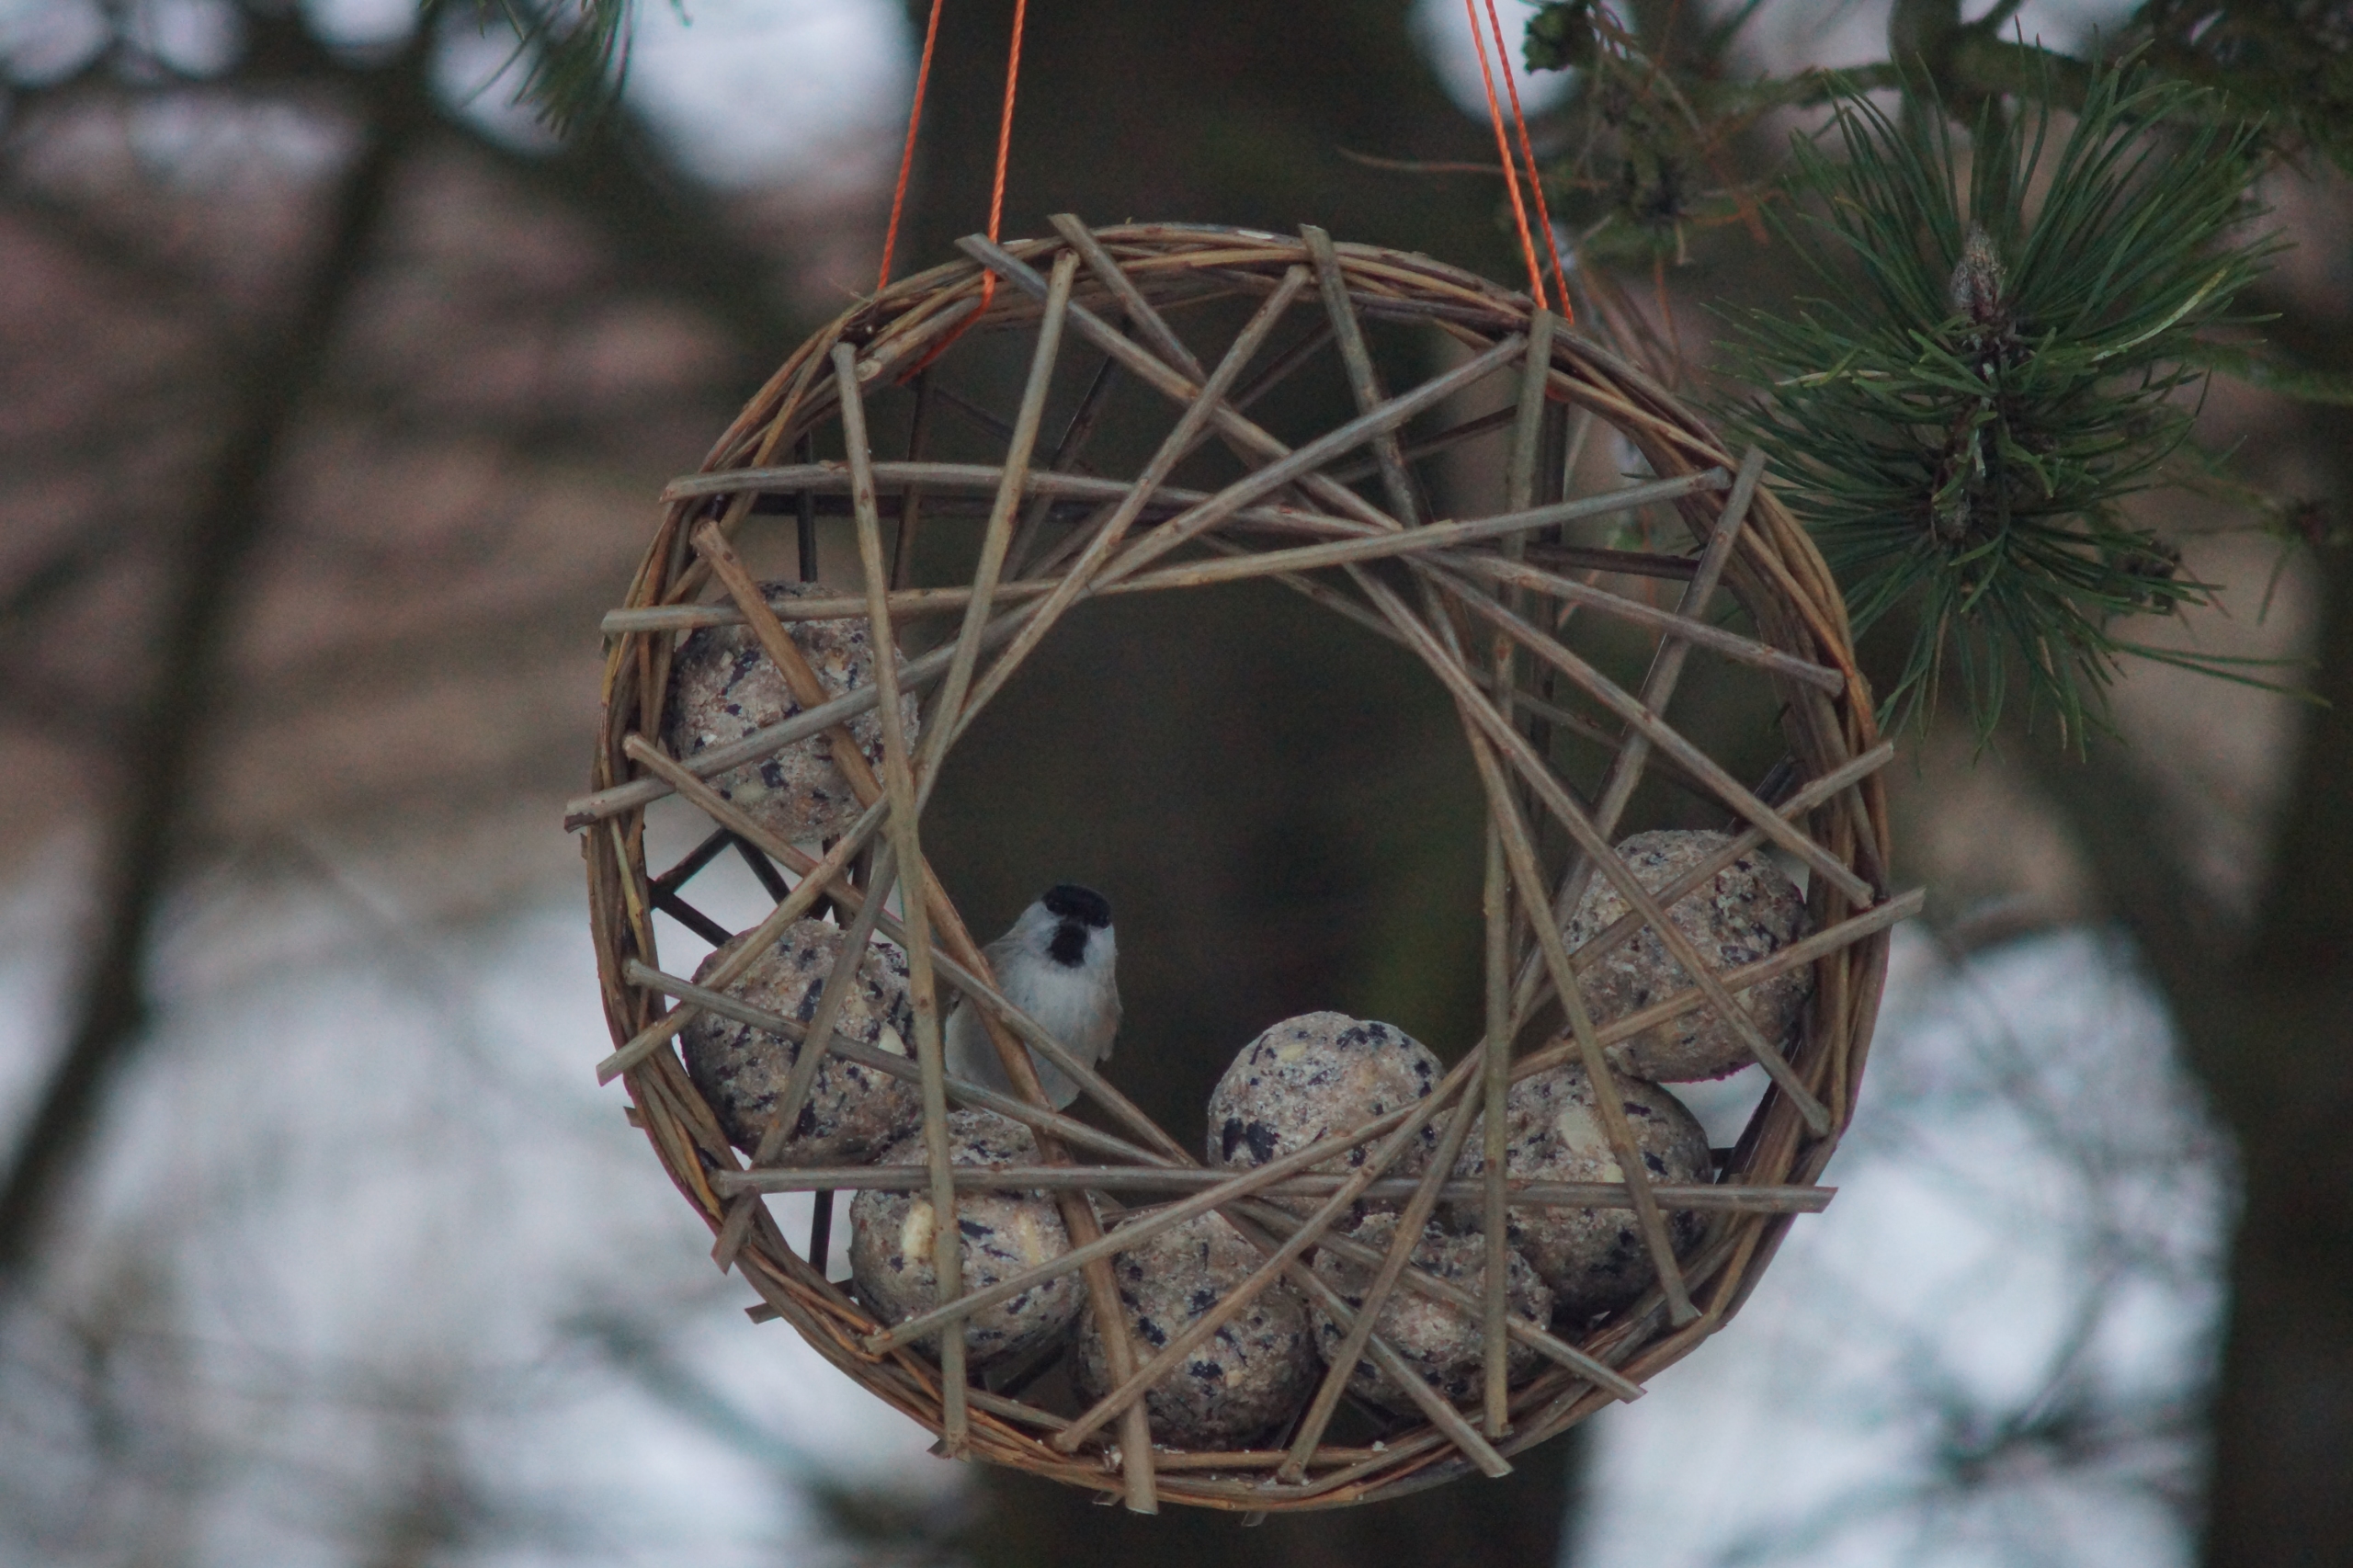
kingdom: Animalia
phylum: Chordata
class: Aves
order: Passeriformes
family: Paridae
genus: Poecile
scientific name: Poecile palustris
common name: Sumpmejse
